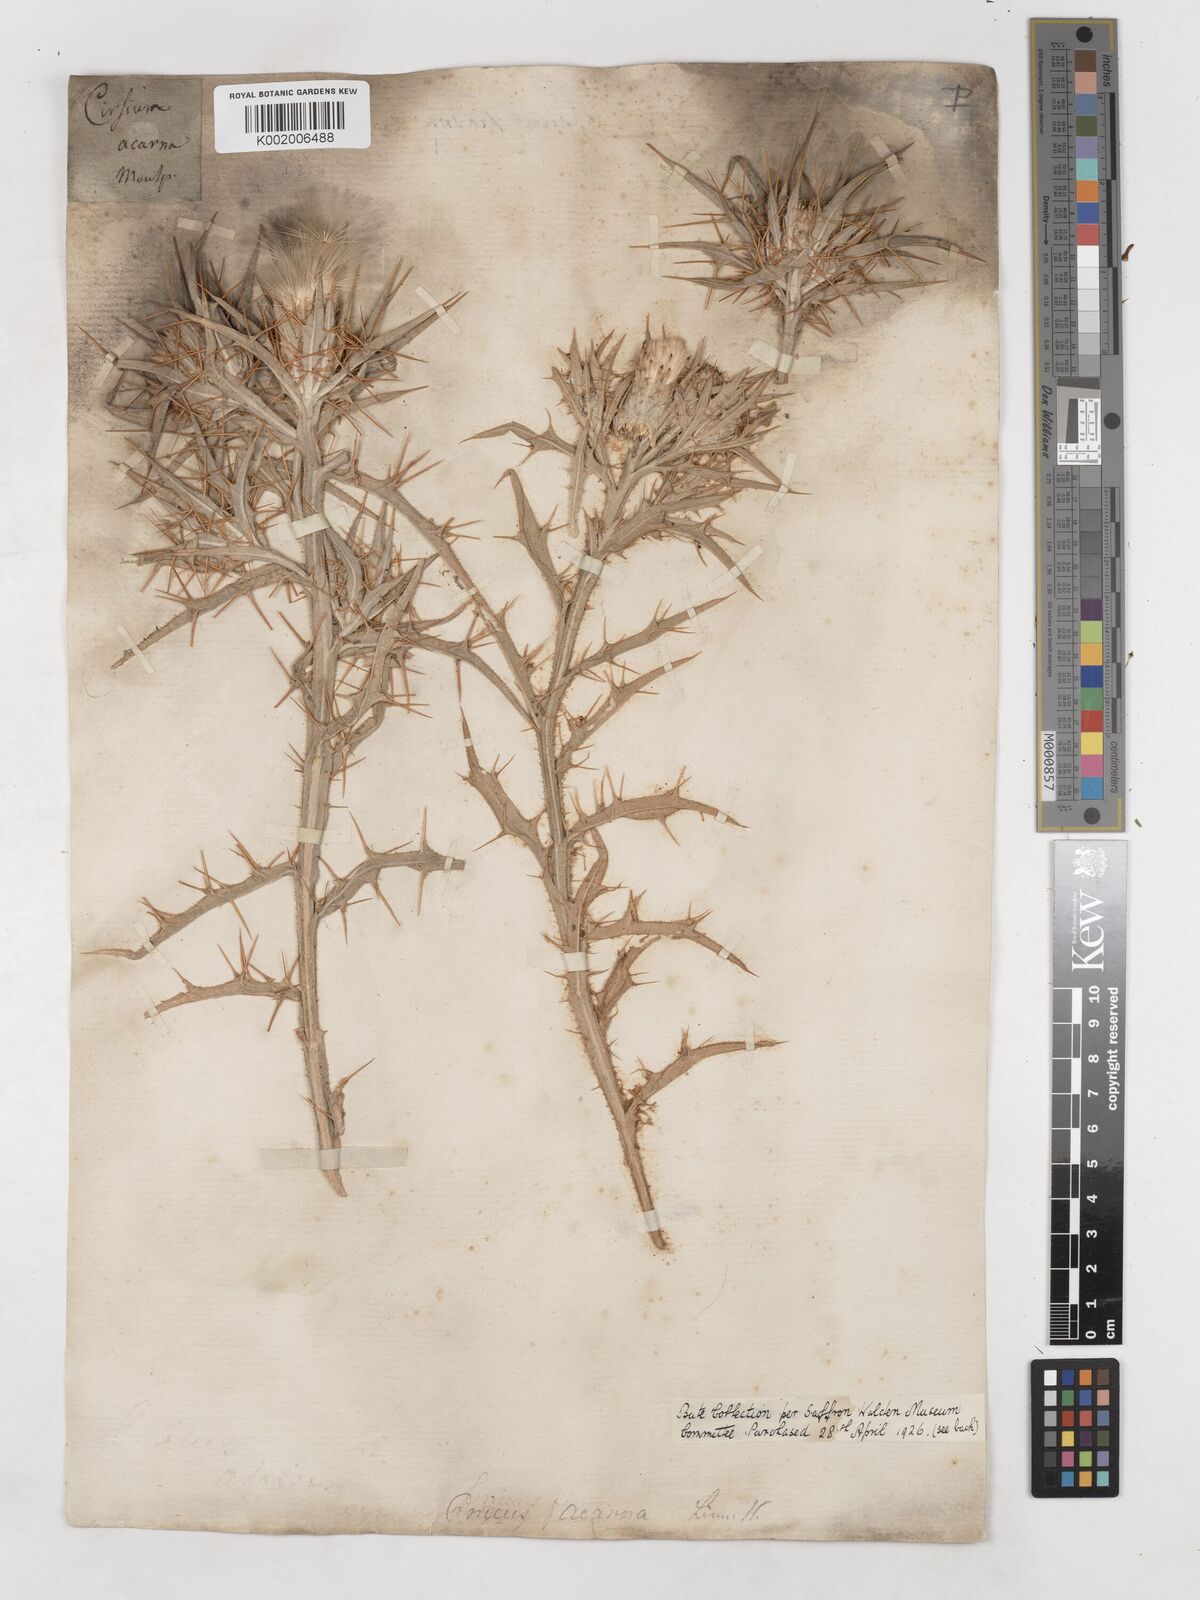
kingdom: Plantae
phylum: Tracheophyta
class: Magnoliopsida
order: Asterales
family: Asteraceae
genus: Picnomon
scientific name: Picnomon
